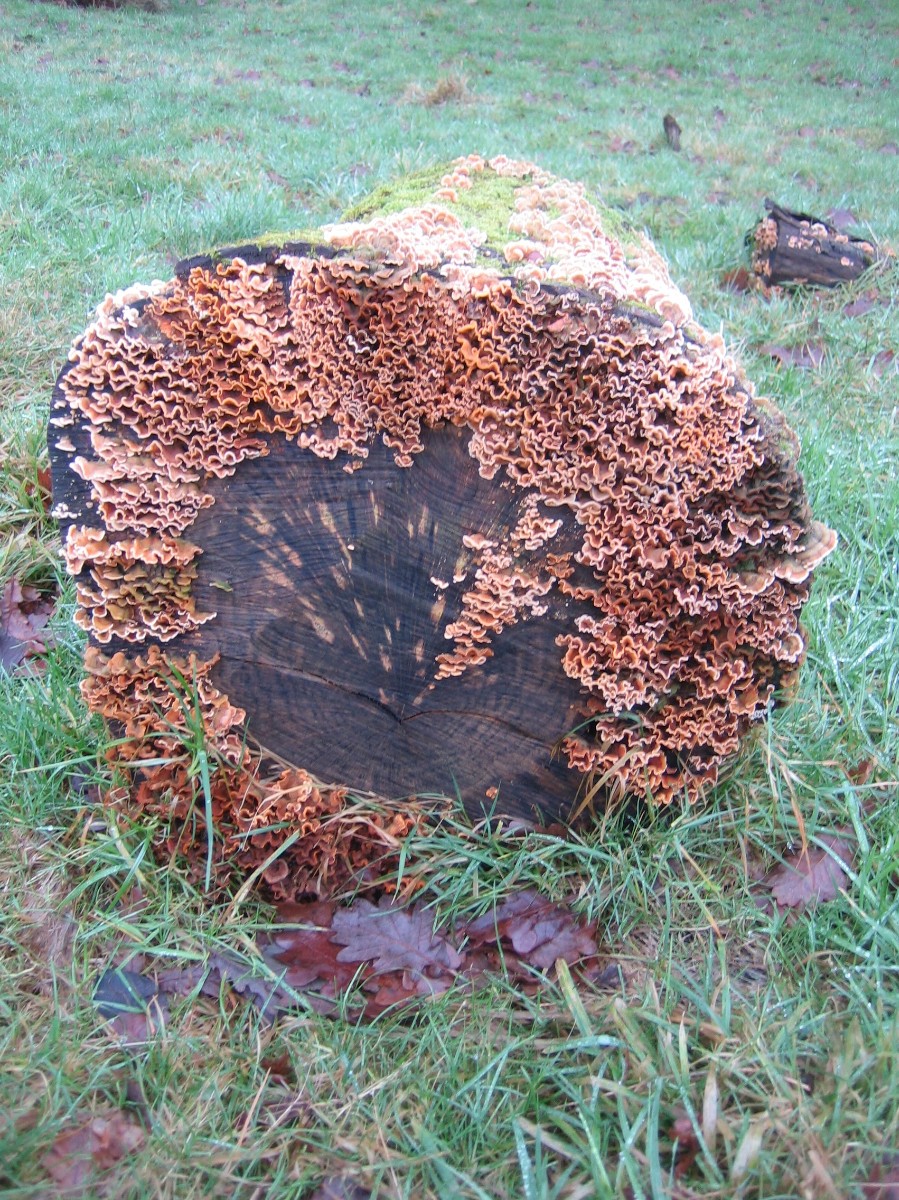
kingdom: Fungi
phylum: Basidiomycota
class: Agaricomycetes
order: Russulales
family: Stereaceae
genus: Stereum
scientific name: Stereum hirsutum
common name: håret lædersvamp
